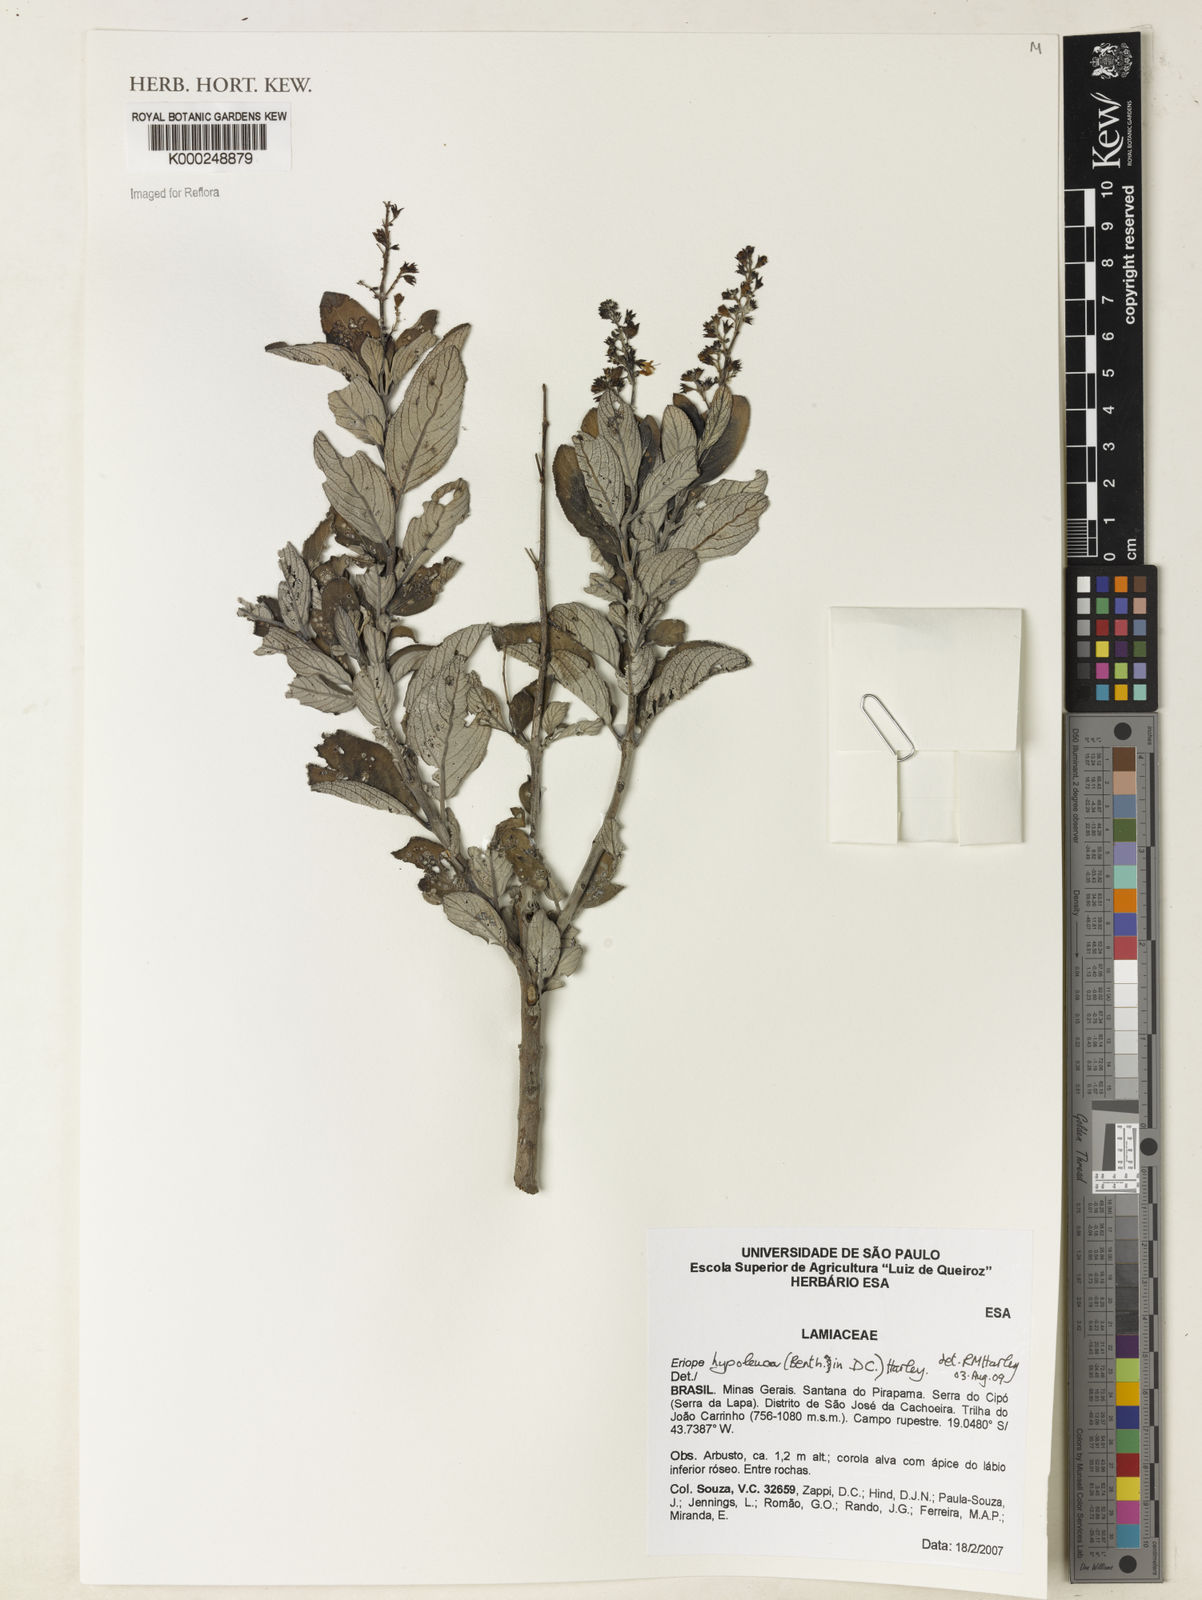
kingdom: Plantae
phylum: Tracheophyta
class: Magnoliopsida
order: Lamiales
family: Lamiaceae
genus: Eriope
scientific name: Eriope hypoleuca
